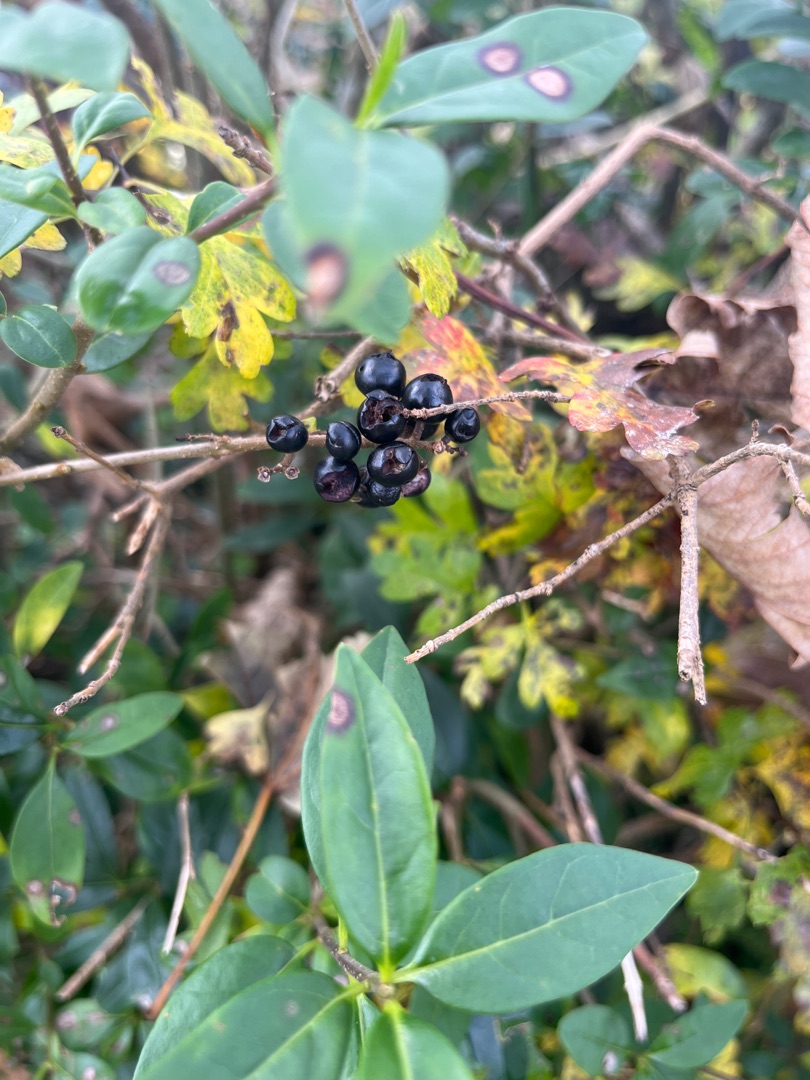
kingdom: Plantae
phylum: Tracheophyta
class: Magnoliopsida
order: Lamiales
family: Oleaceae
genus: Ligustrum
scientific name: Ligustrum vulgare
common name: Liguster
